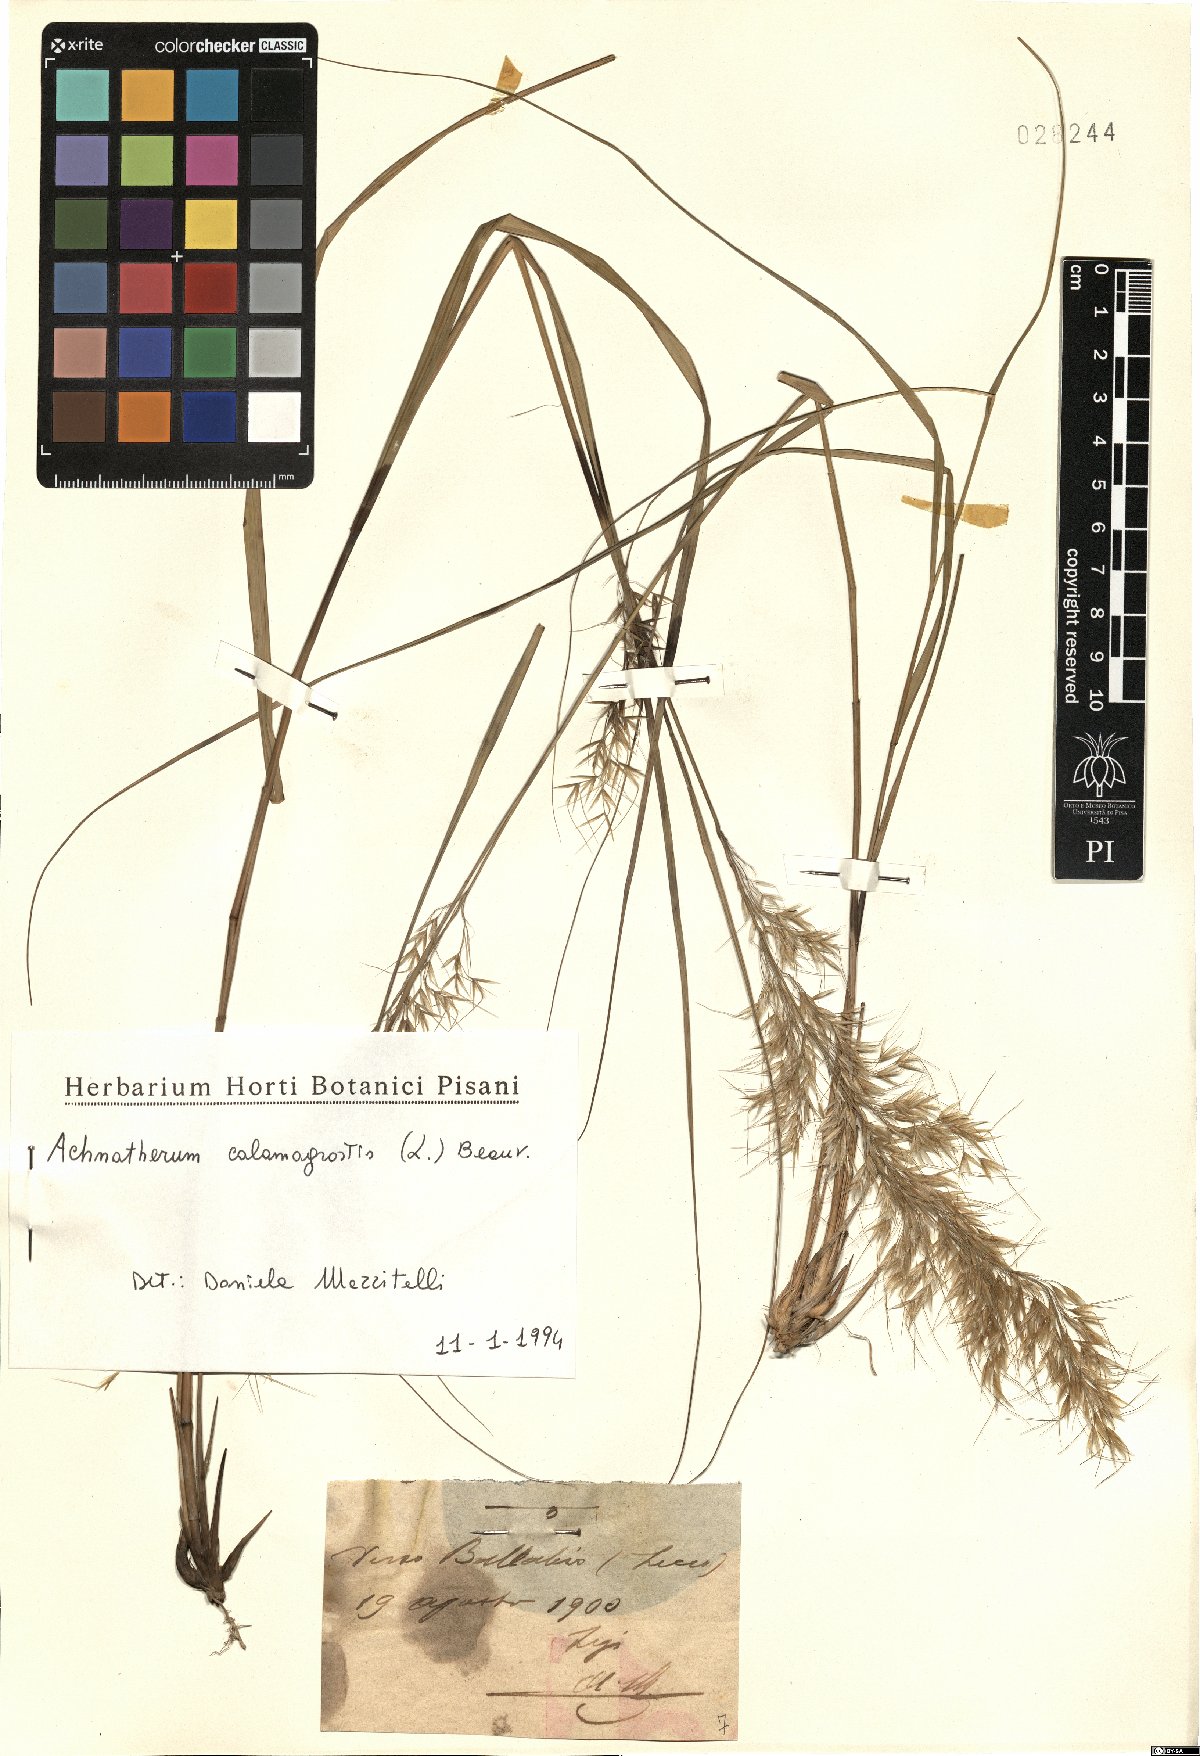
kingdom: Plantae
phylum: Tracheophyta
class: Liliopsida
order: Poales
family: Poaceae
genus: Achnatherum
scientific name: Achnatherum calamagrostis
